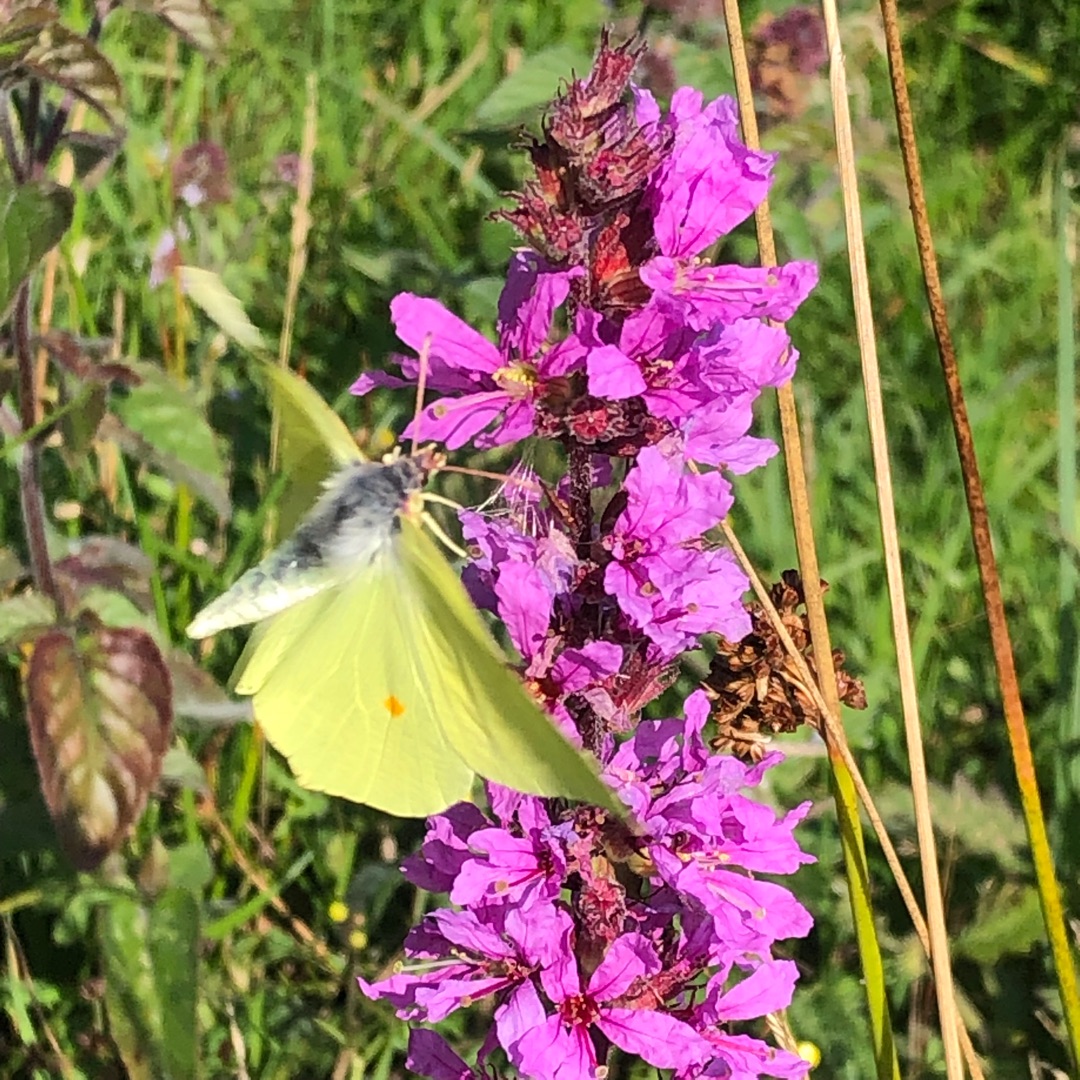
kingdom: Animalia
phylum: Arthropoda
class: Insecta
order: Lepidoptera
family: Pieridae
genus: Gonepteryx
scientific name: Gonepteryx rhamni
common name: Citronsommerfugl
